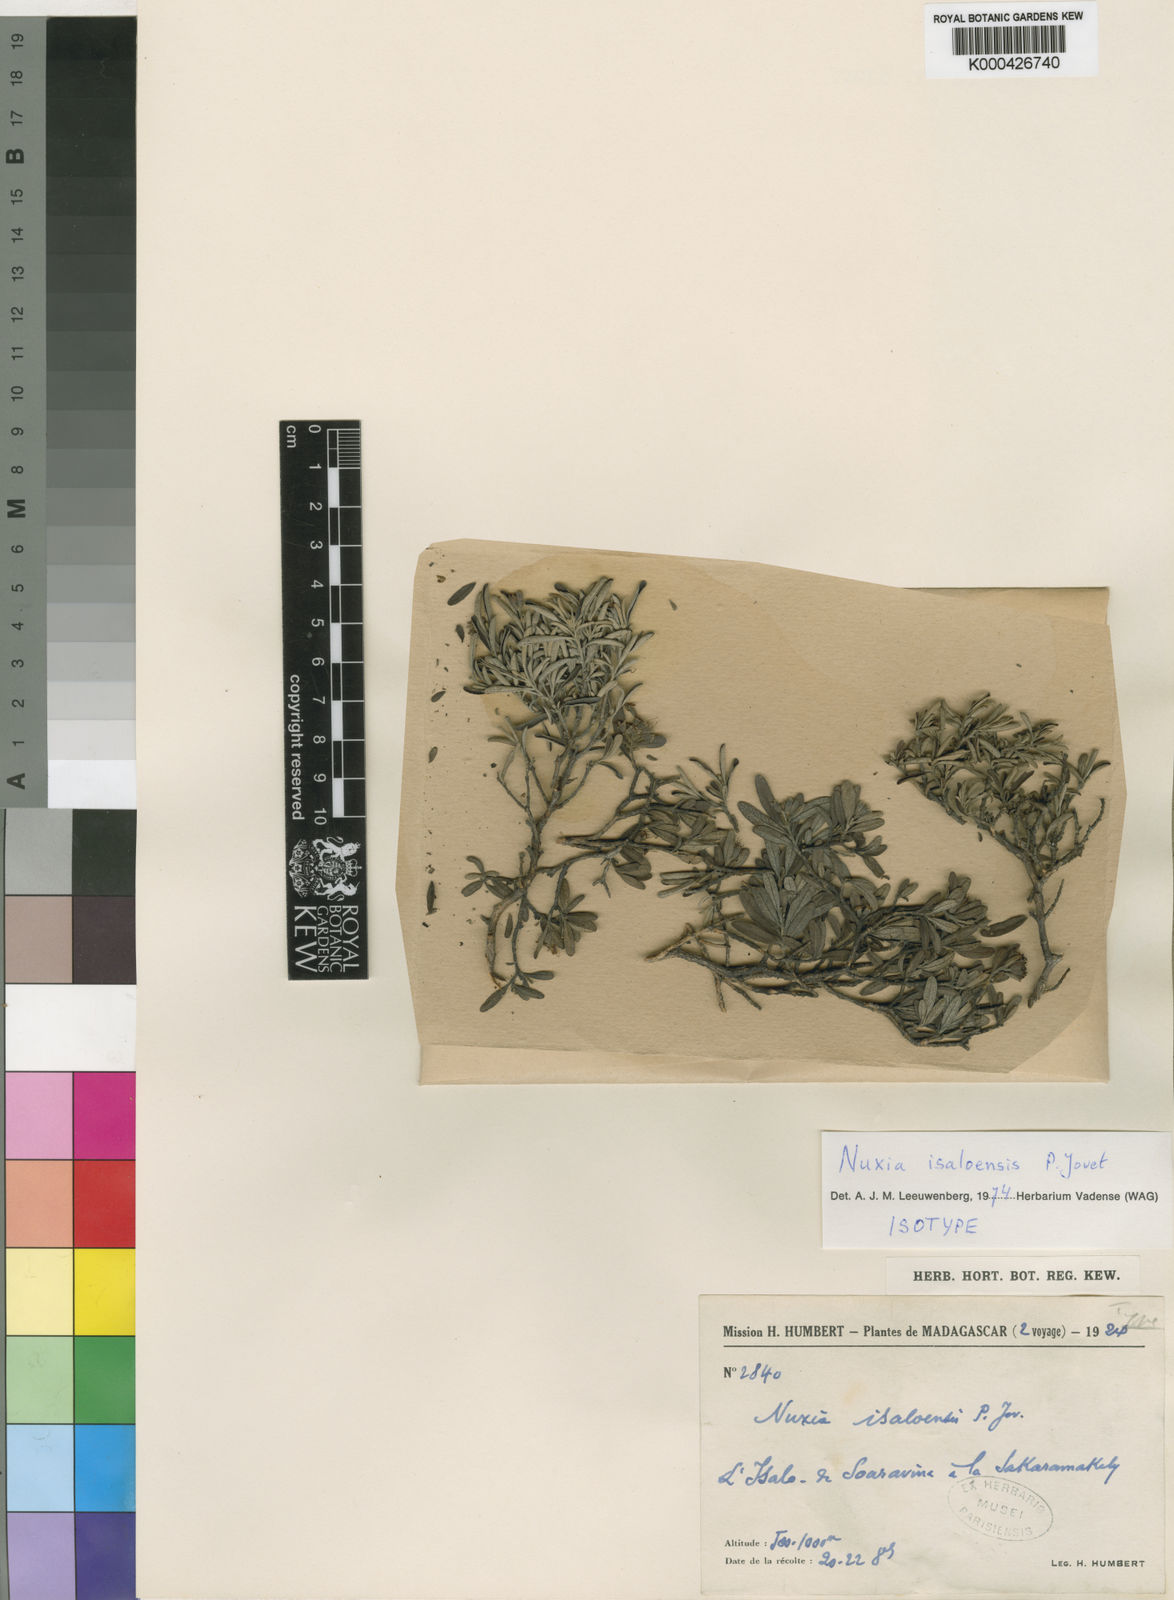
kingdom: Plantae
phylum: Tracheophyta
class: Magnoliopsida
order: Lamiales
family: Stilbaceae
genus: Nuxia
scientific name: Nuxia isaloensis
